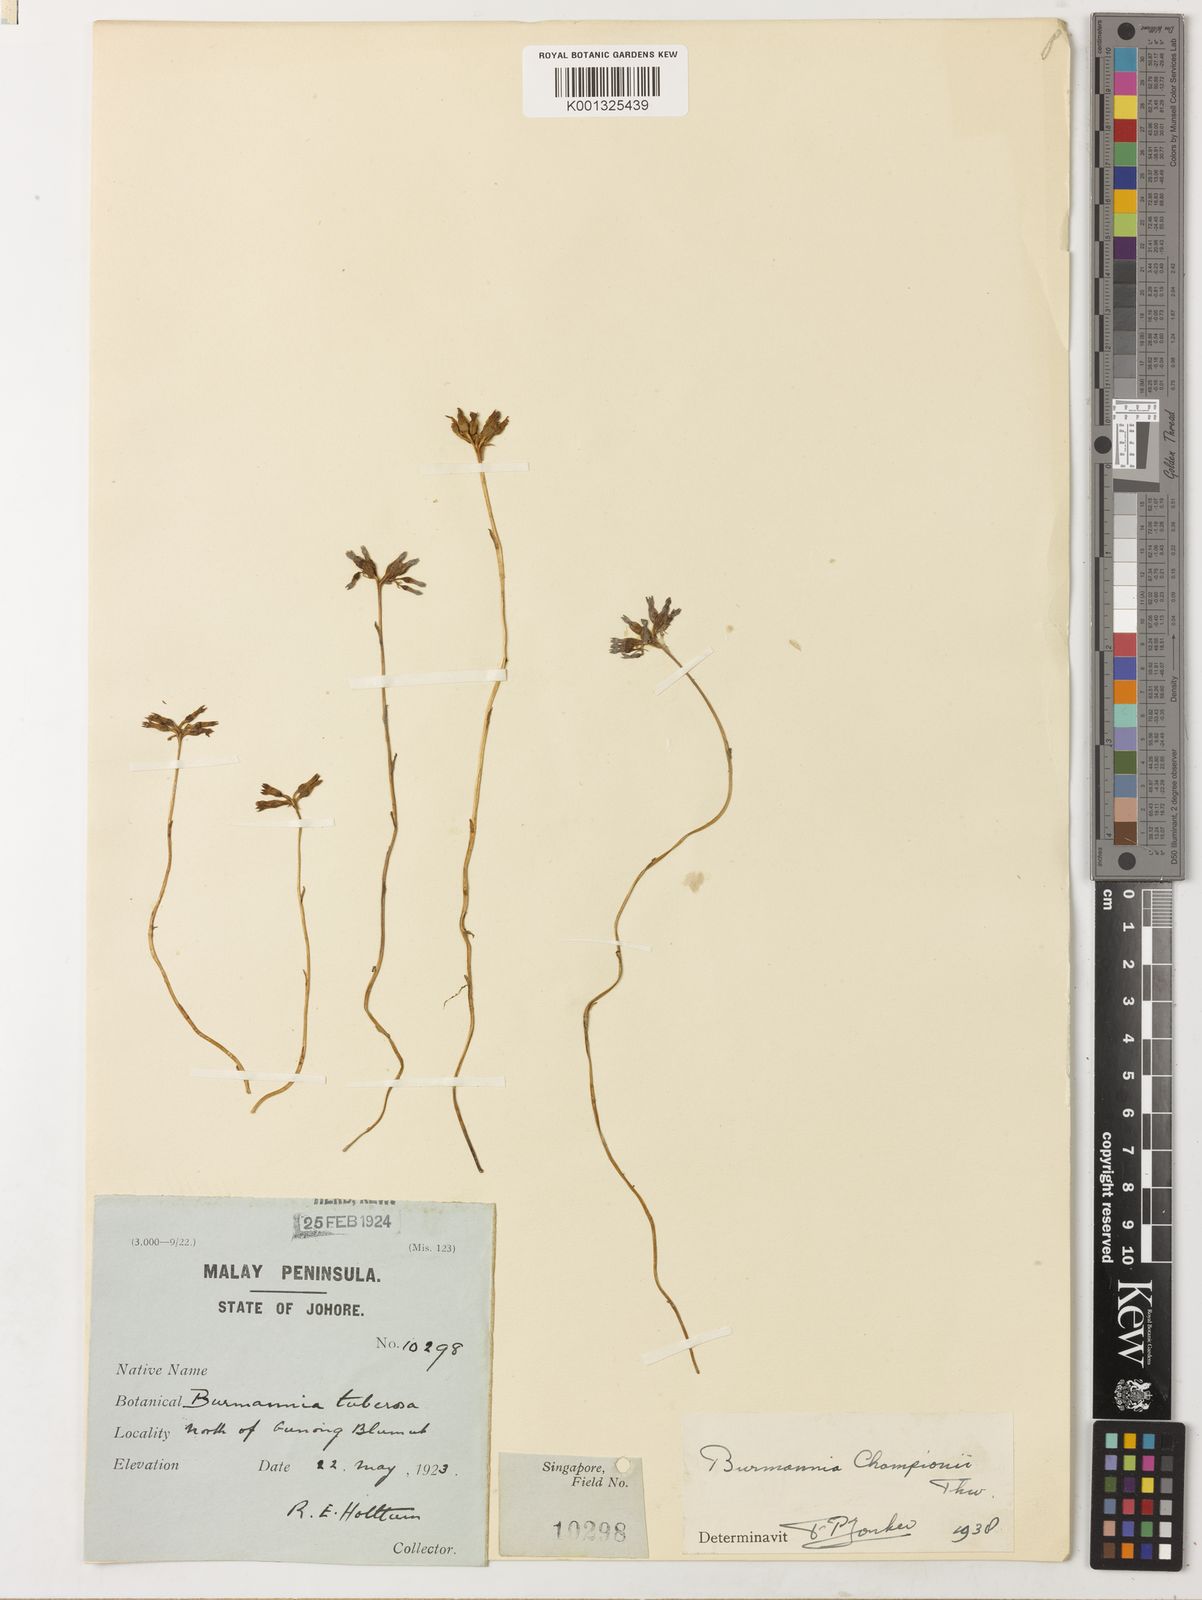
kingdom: Plantae
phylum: Tracheophyta
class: Liliopsida
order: Dioscoreales
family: Burmanniaceae
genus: Burmannia
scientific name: Burmannia championii
